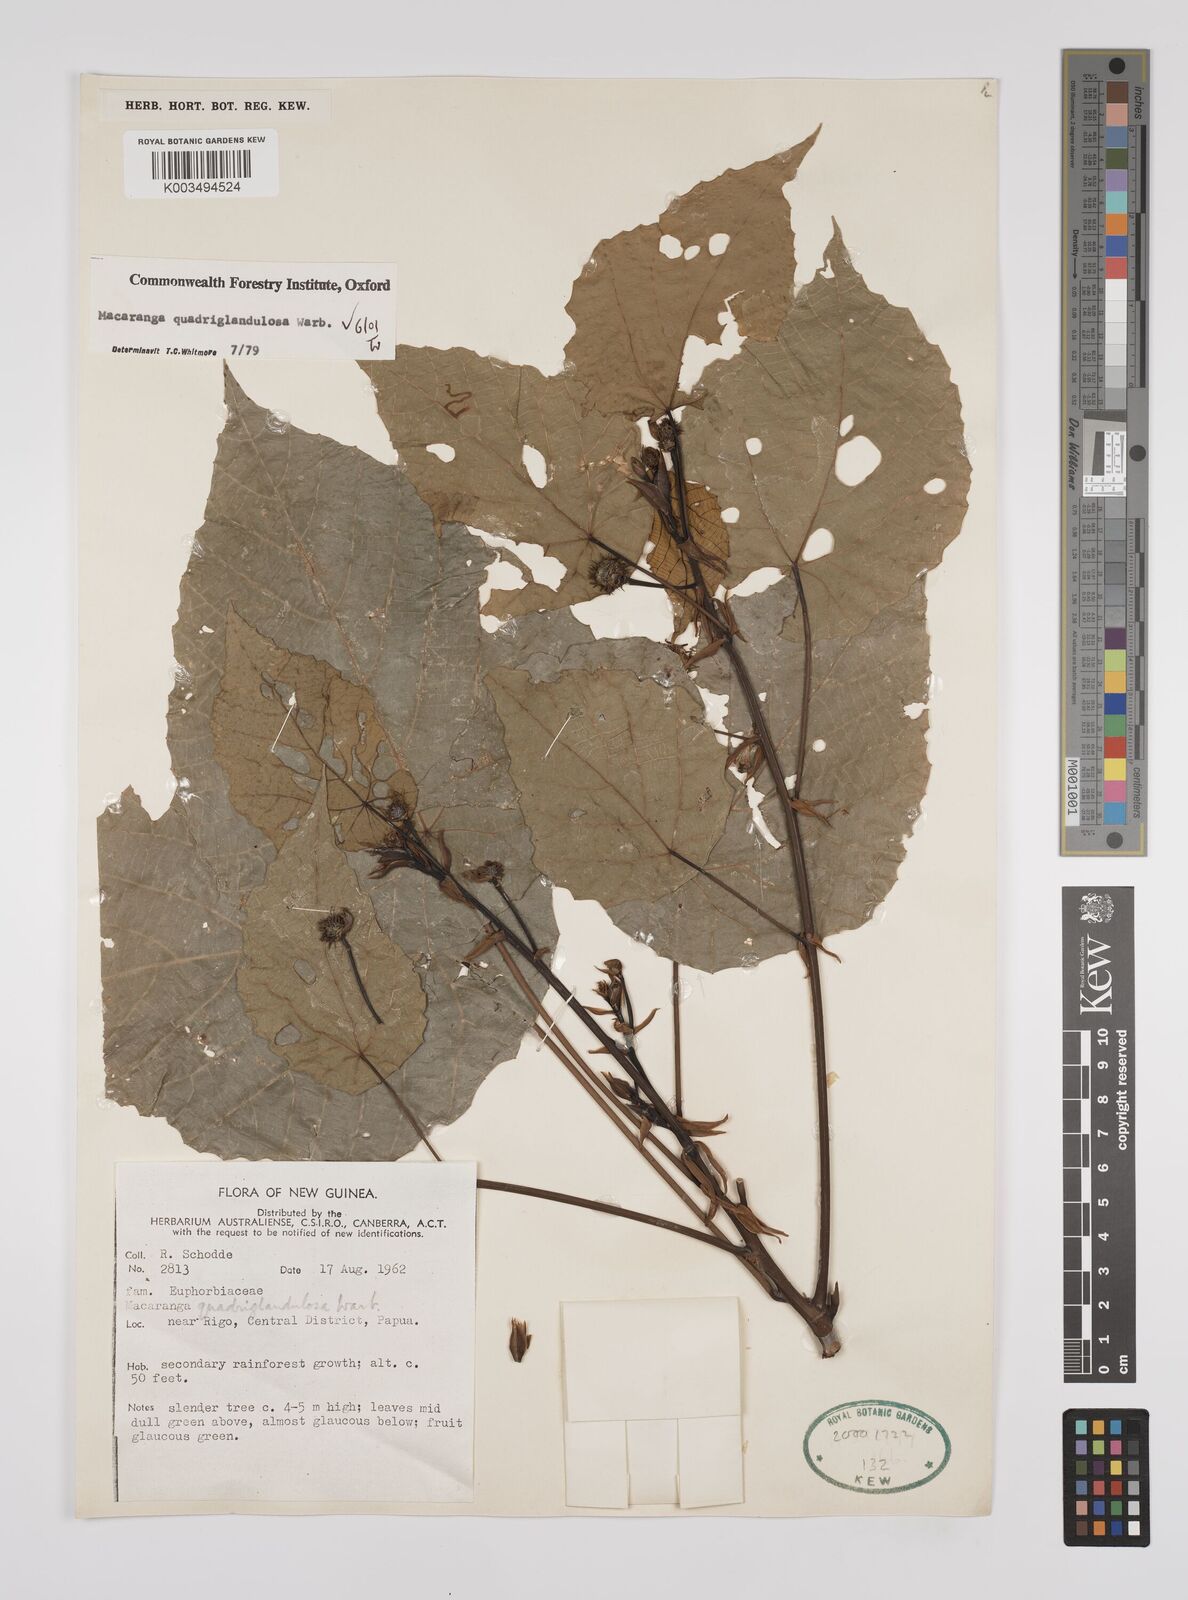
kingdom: Plantae
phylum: Tracheophyta
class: Magnoliopsida
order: Malpighiales
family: Euphorbiaceae
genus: Macaranga
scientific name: Macaranga quadriglandulosa
